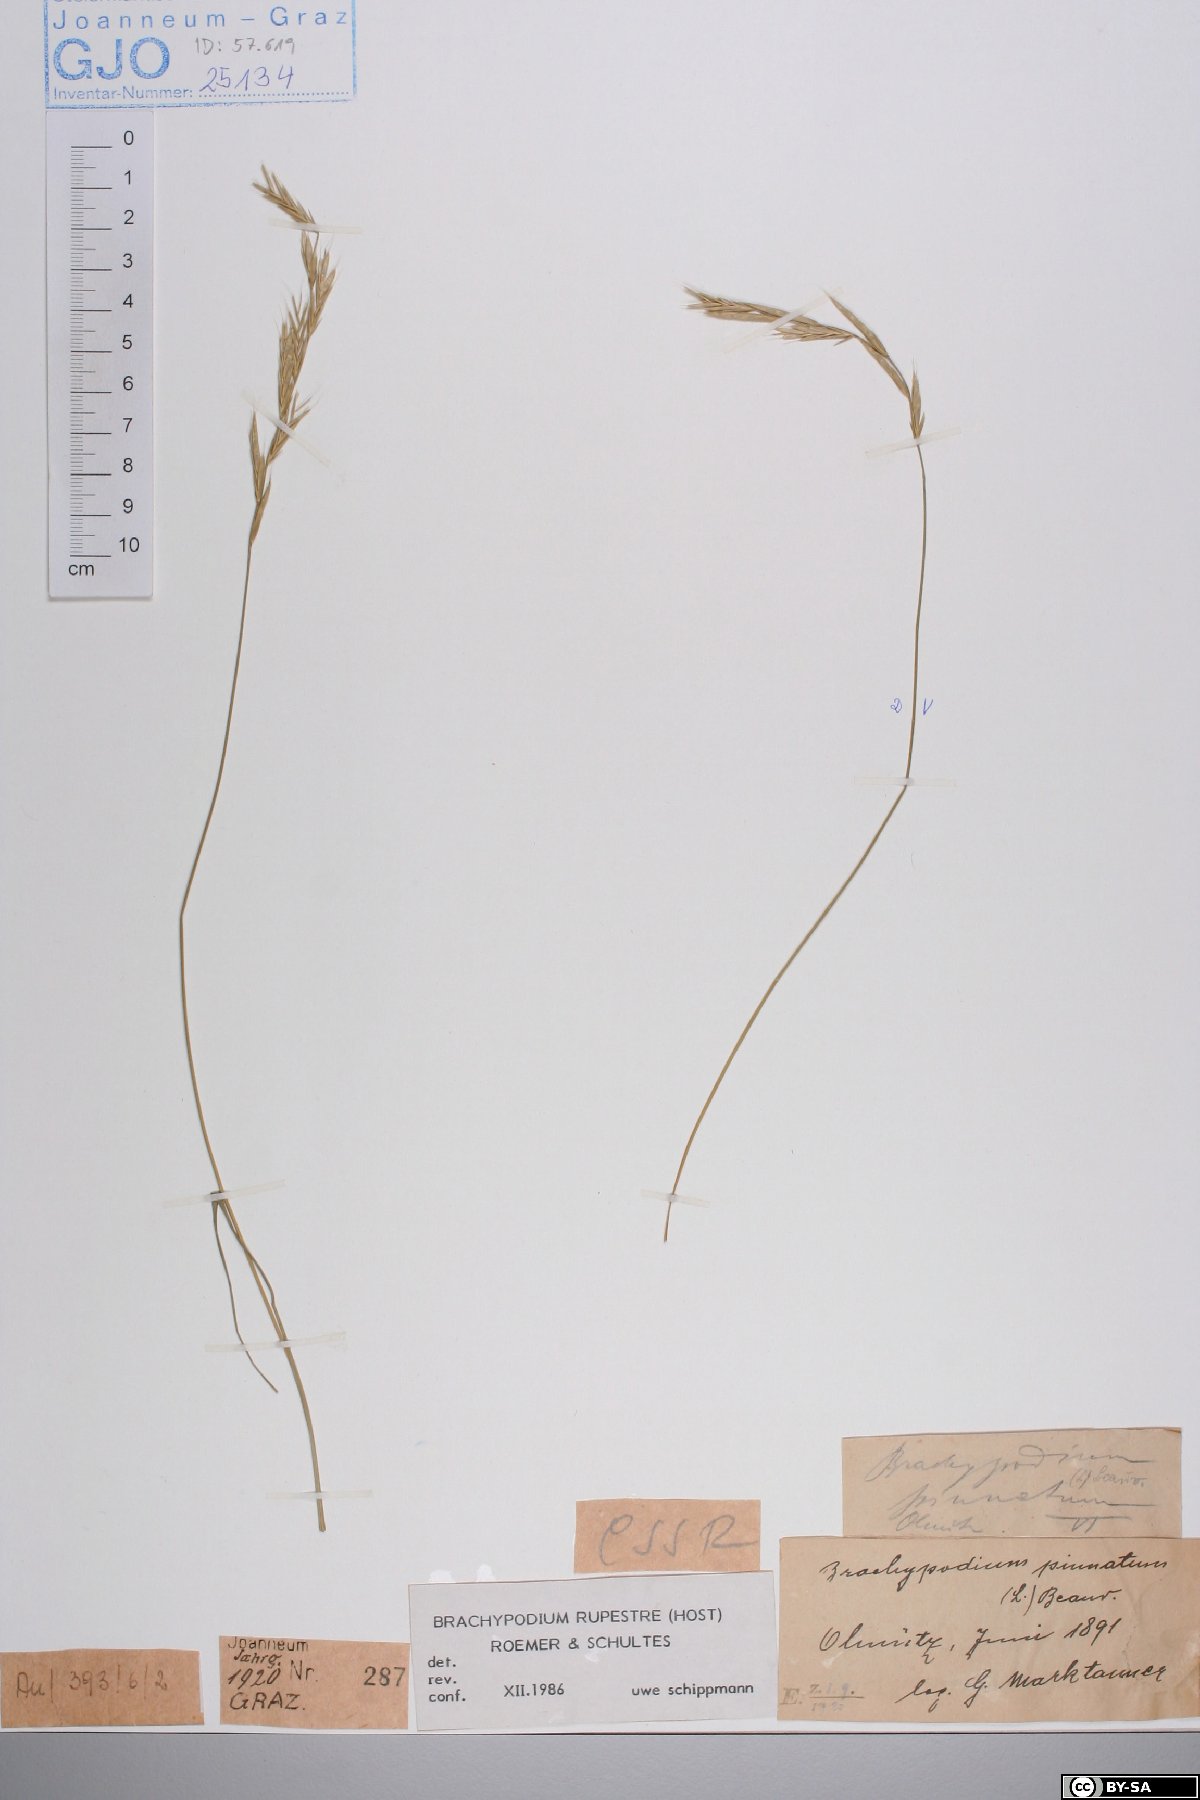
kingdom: Plantae
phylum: Tracheophyta
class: Liliopsida
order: Poales
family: Poaceae
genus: Brachypodium
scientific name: Brachypodium pinnatum
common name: Tor grass
